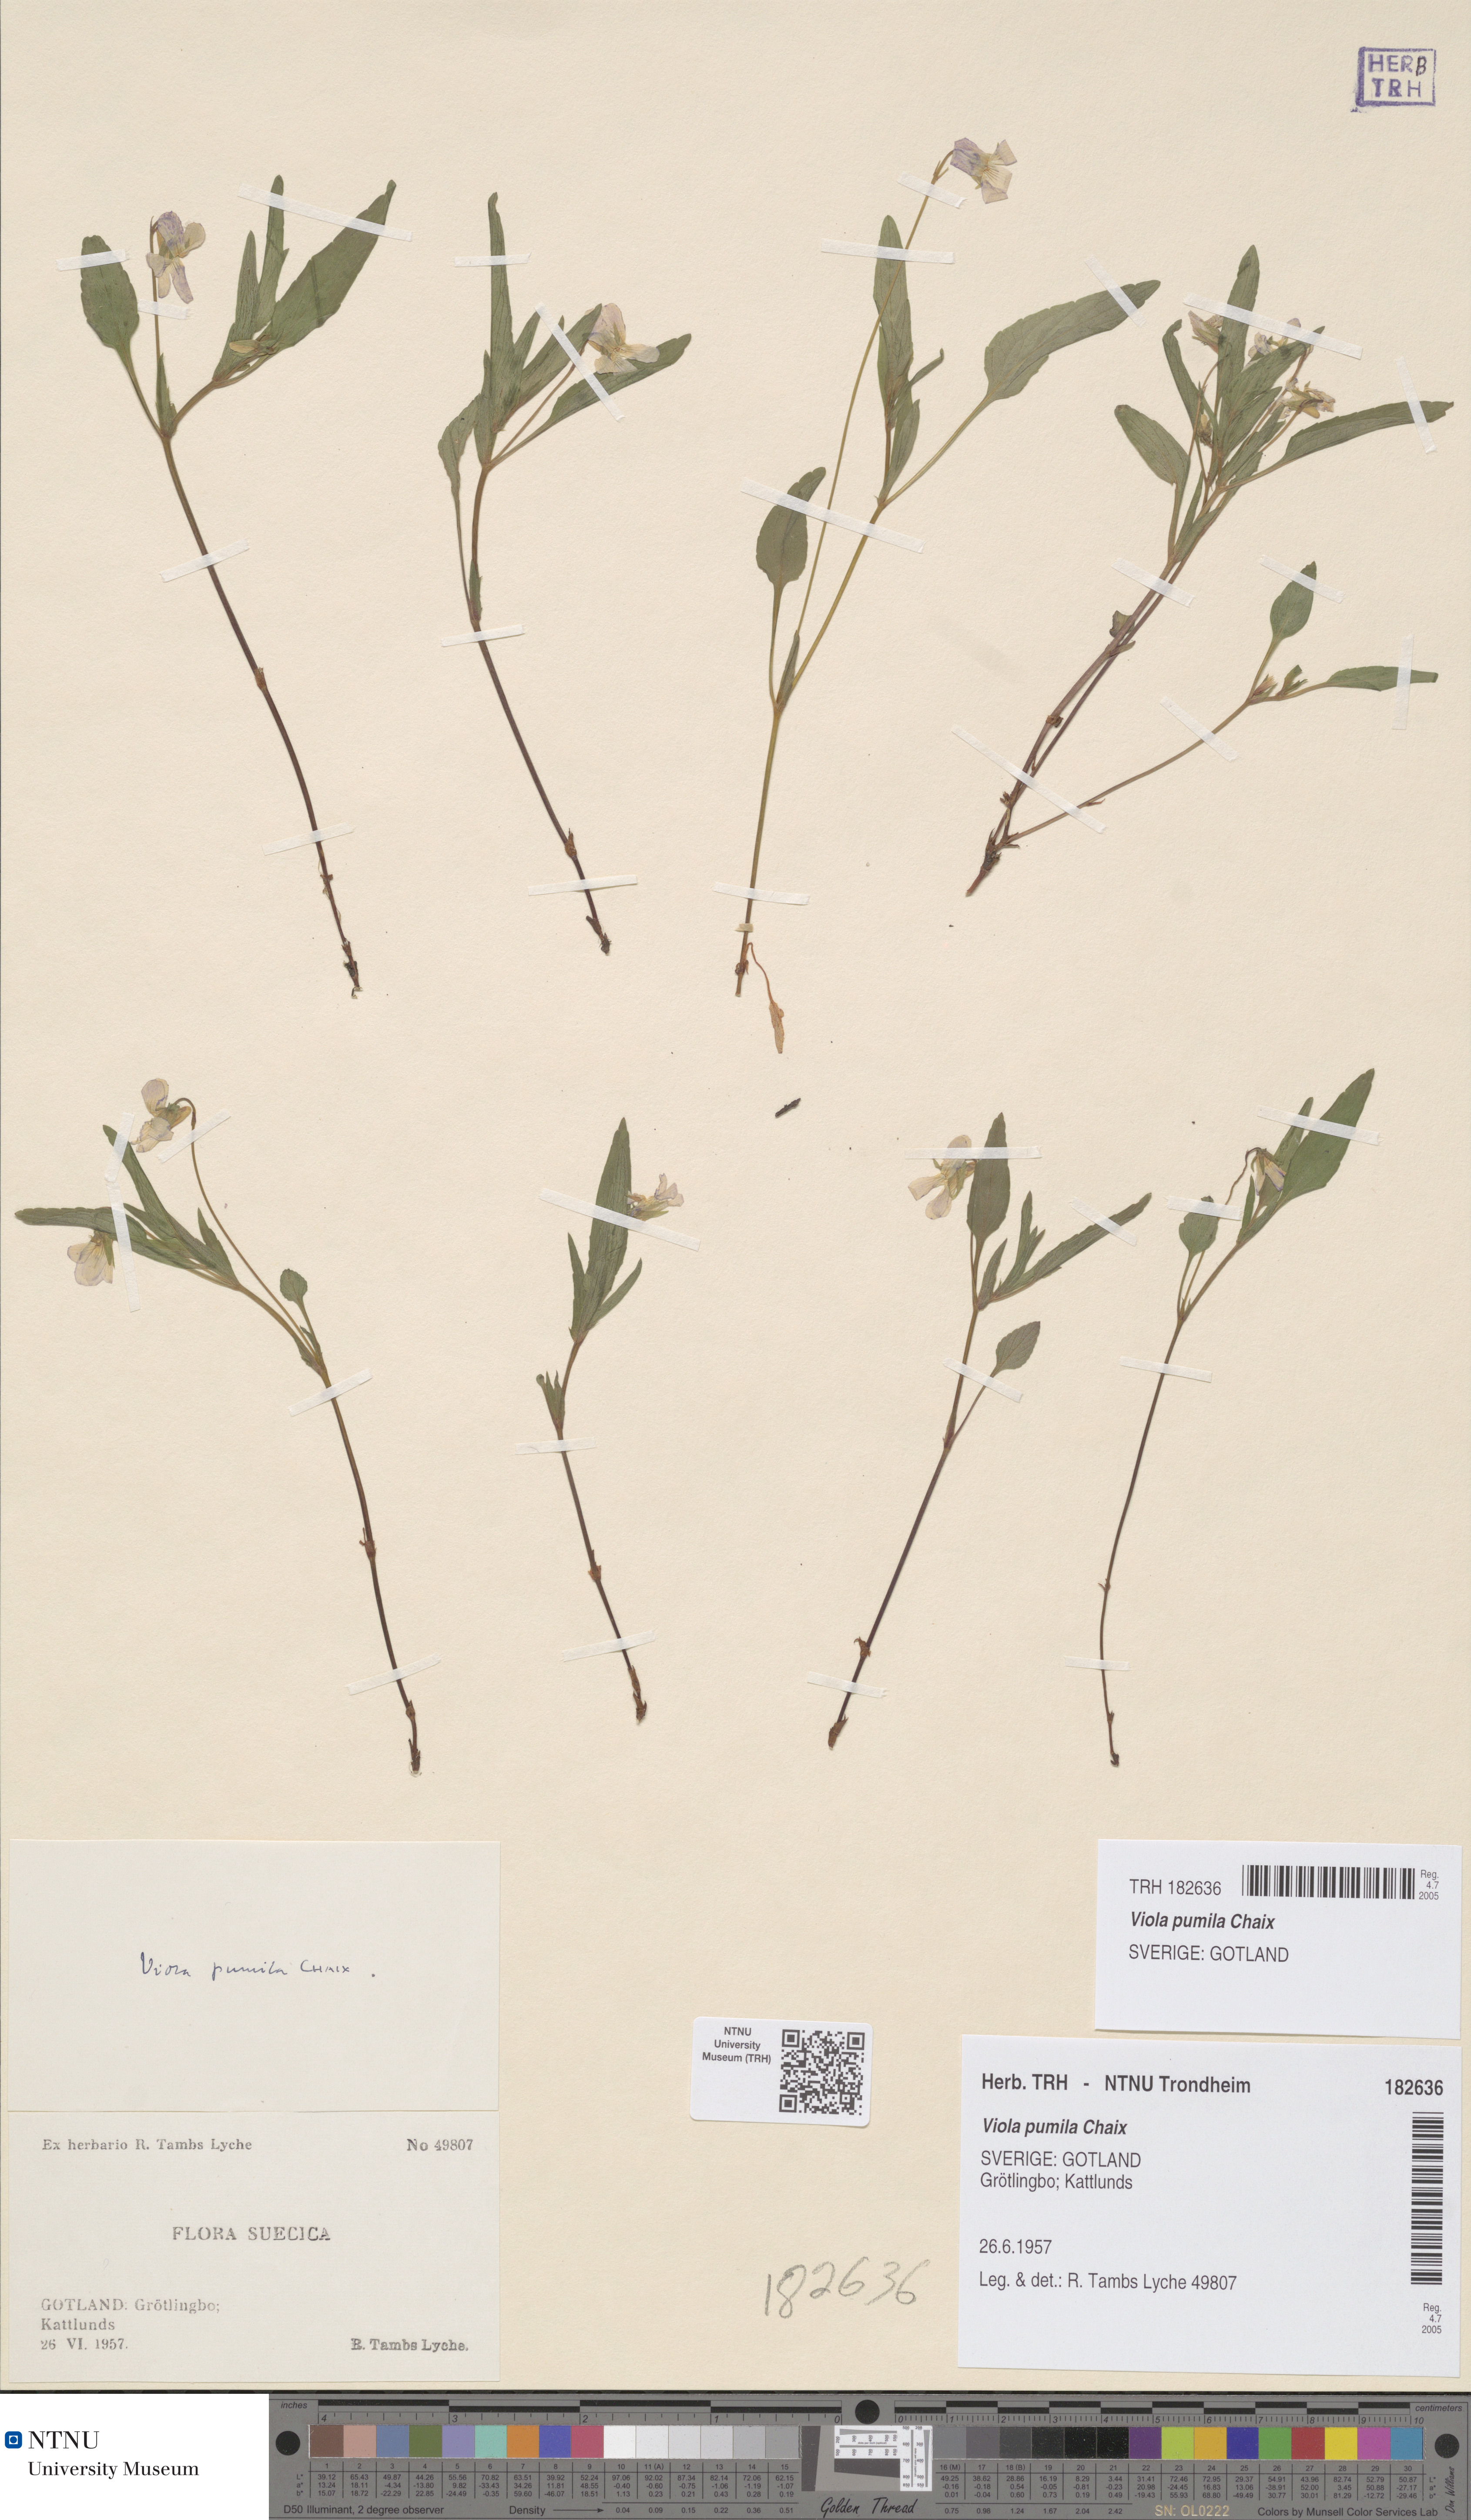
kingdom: Plantae
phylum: Tracheophyta
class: Magnoliopsida
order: Malpighiales
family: Violaceae
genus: Viola
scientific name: Viola pumila
